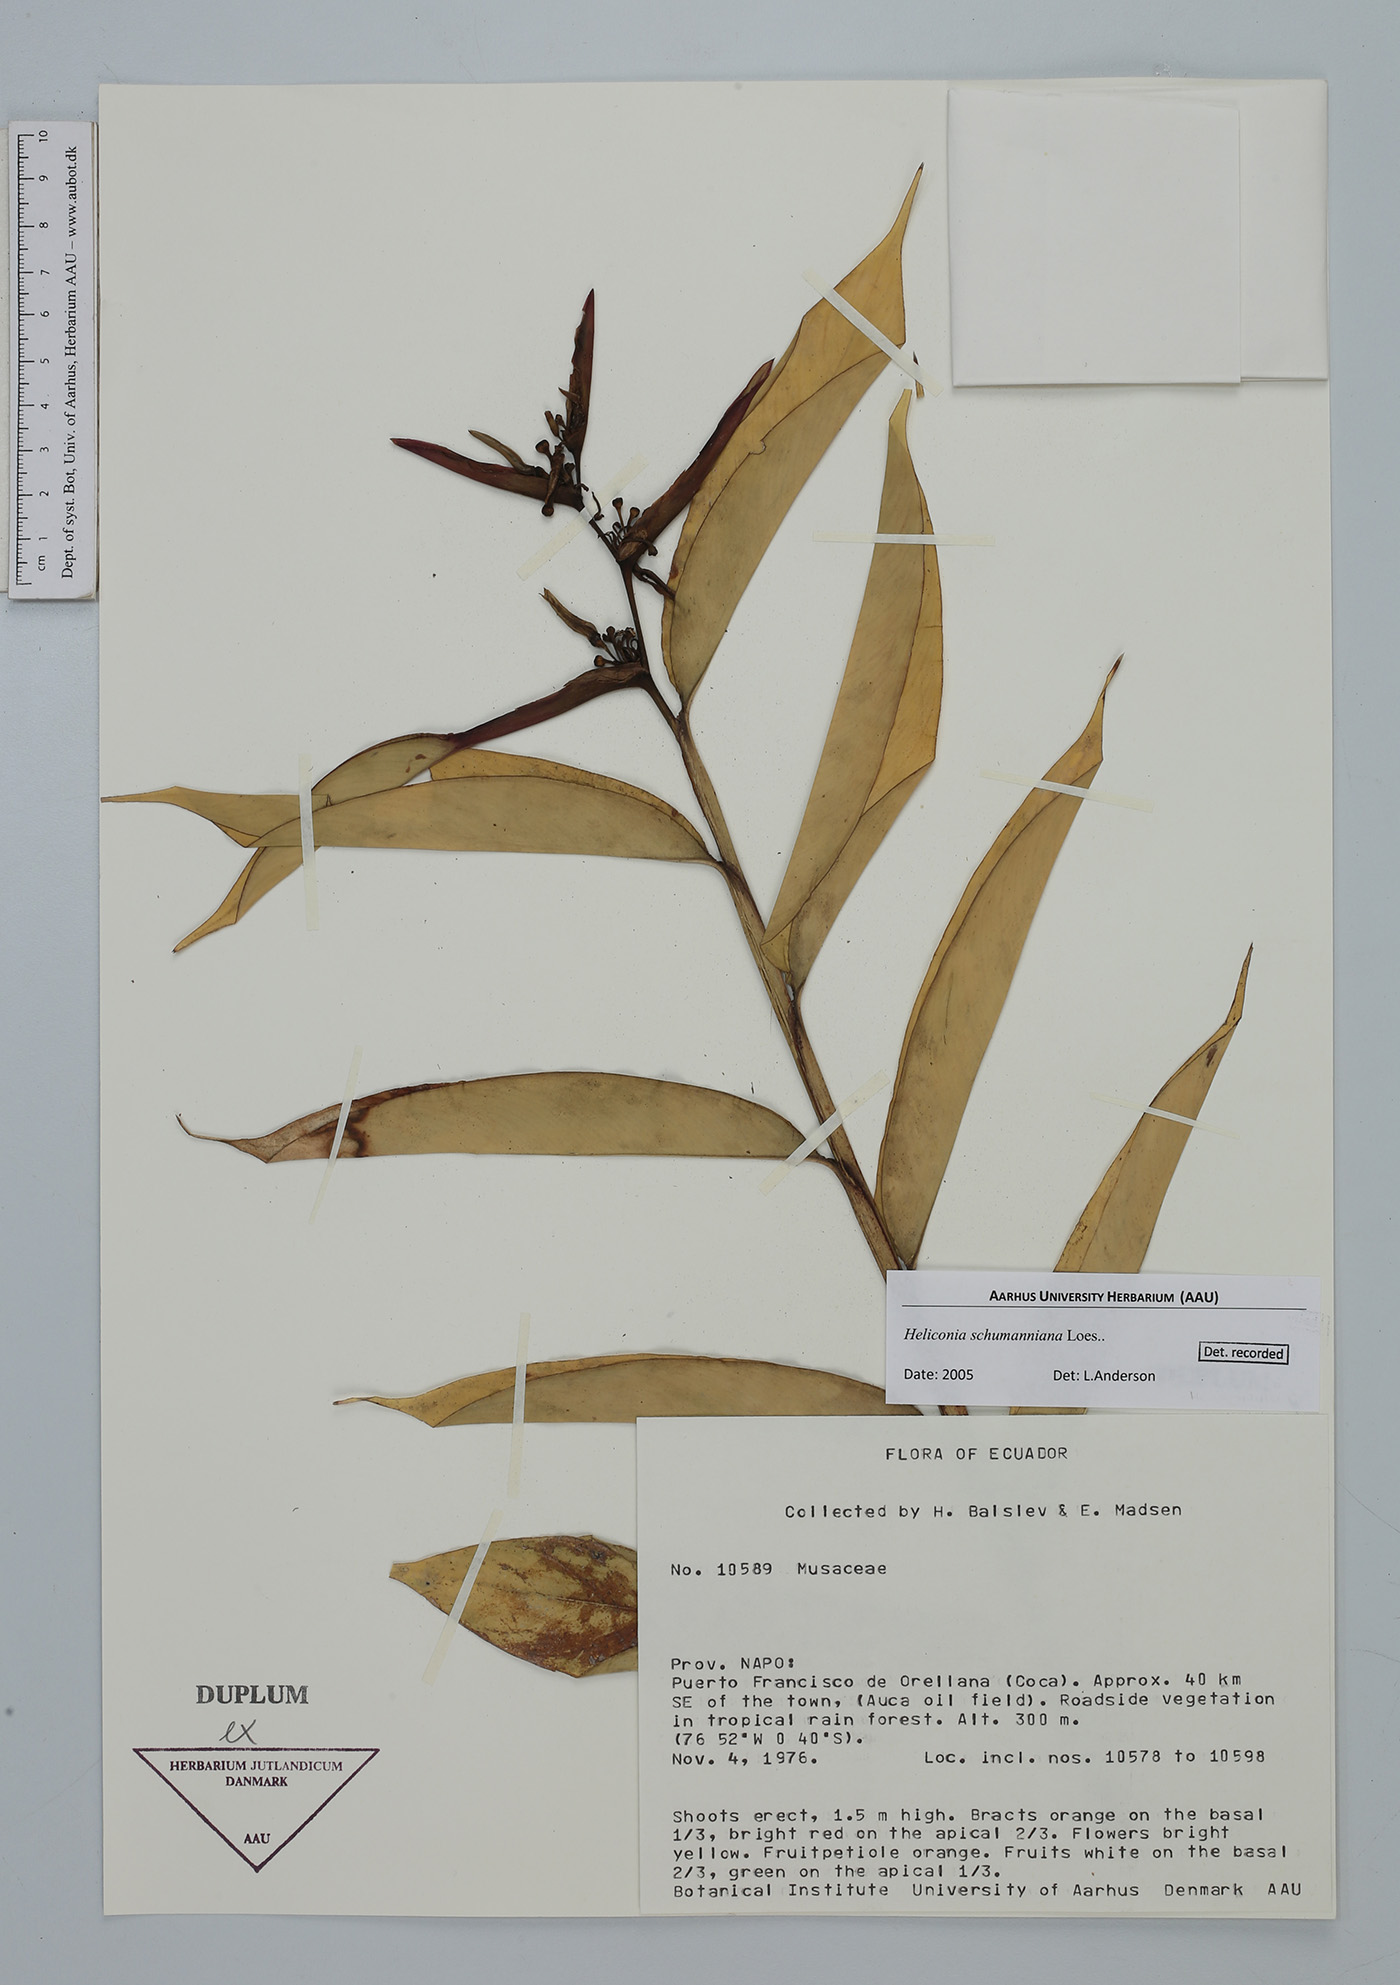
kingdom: Plantae
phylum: Tracheophyta
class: Liliopsida
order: Zingiberales
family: Heliconiaceae
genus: Heliconia
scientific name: Heliconia schumanniana
